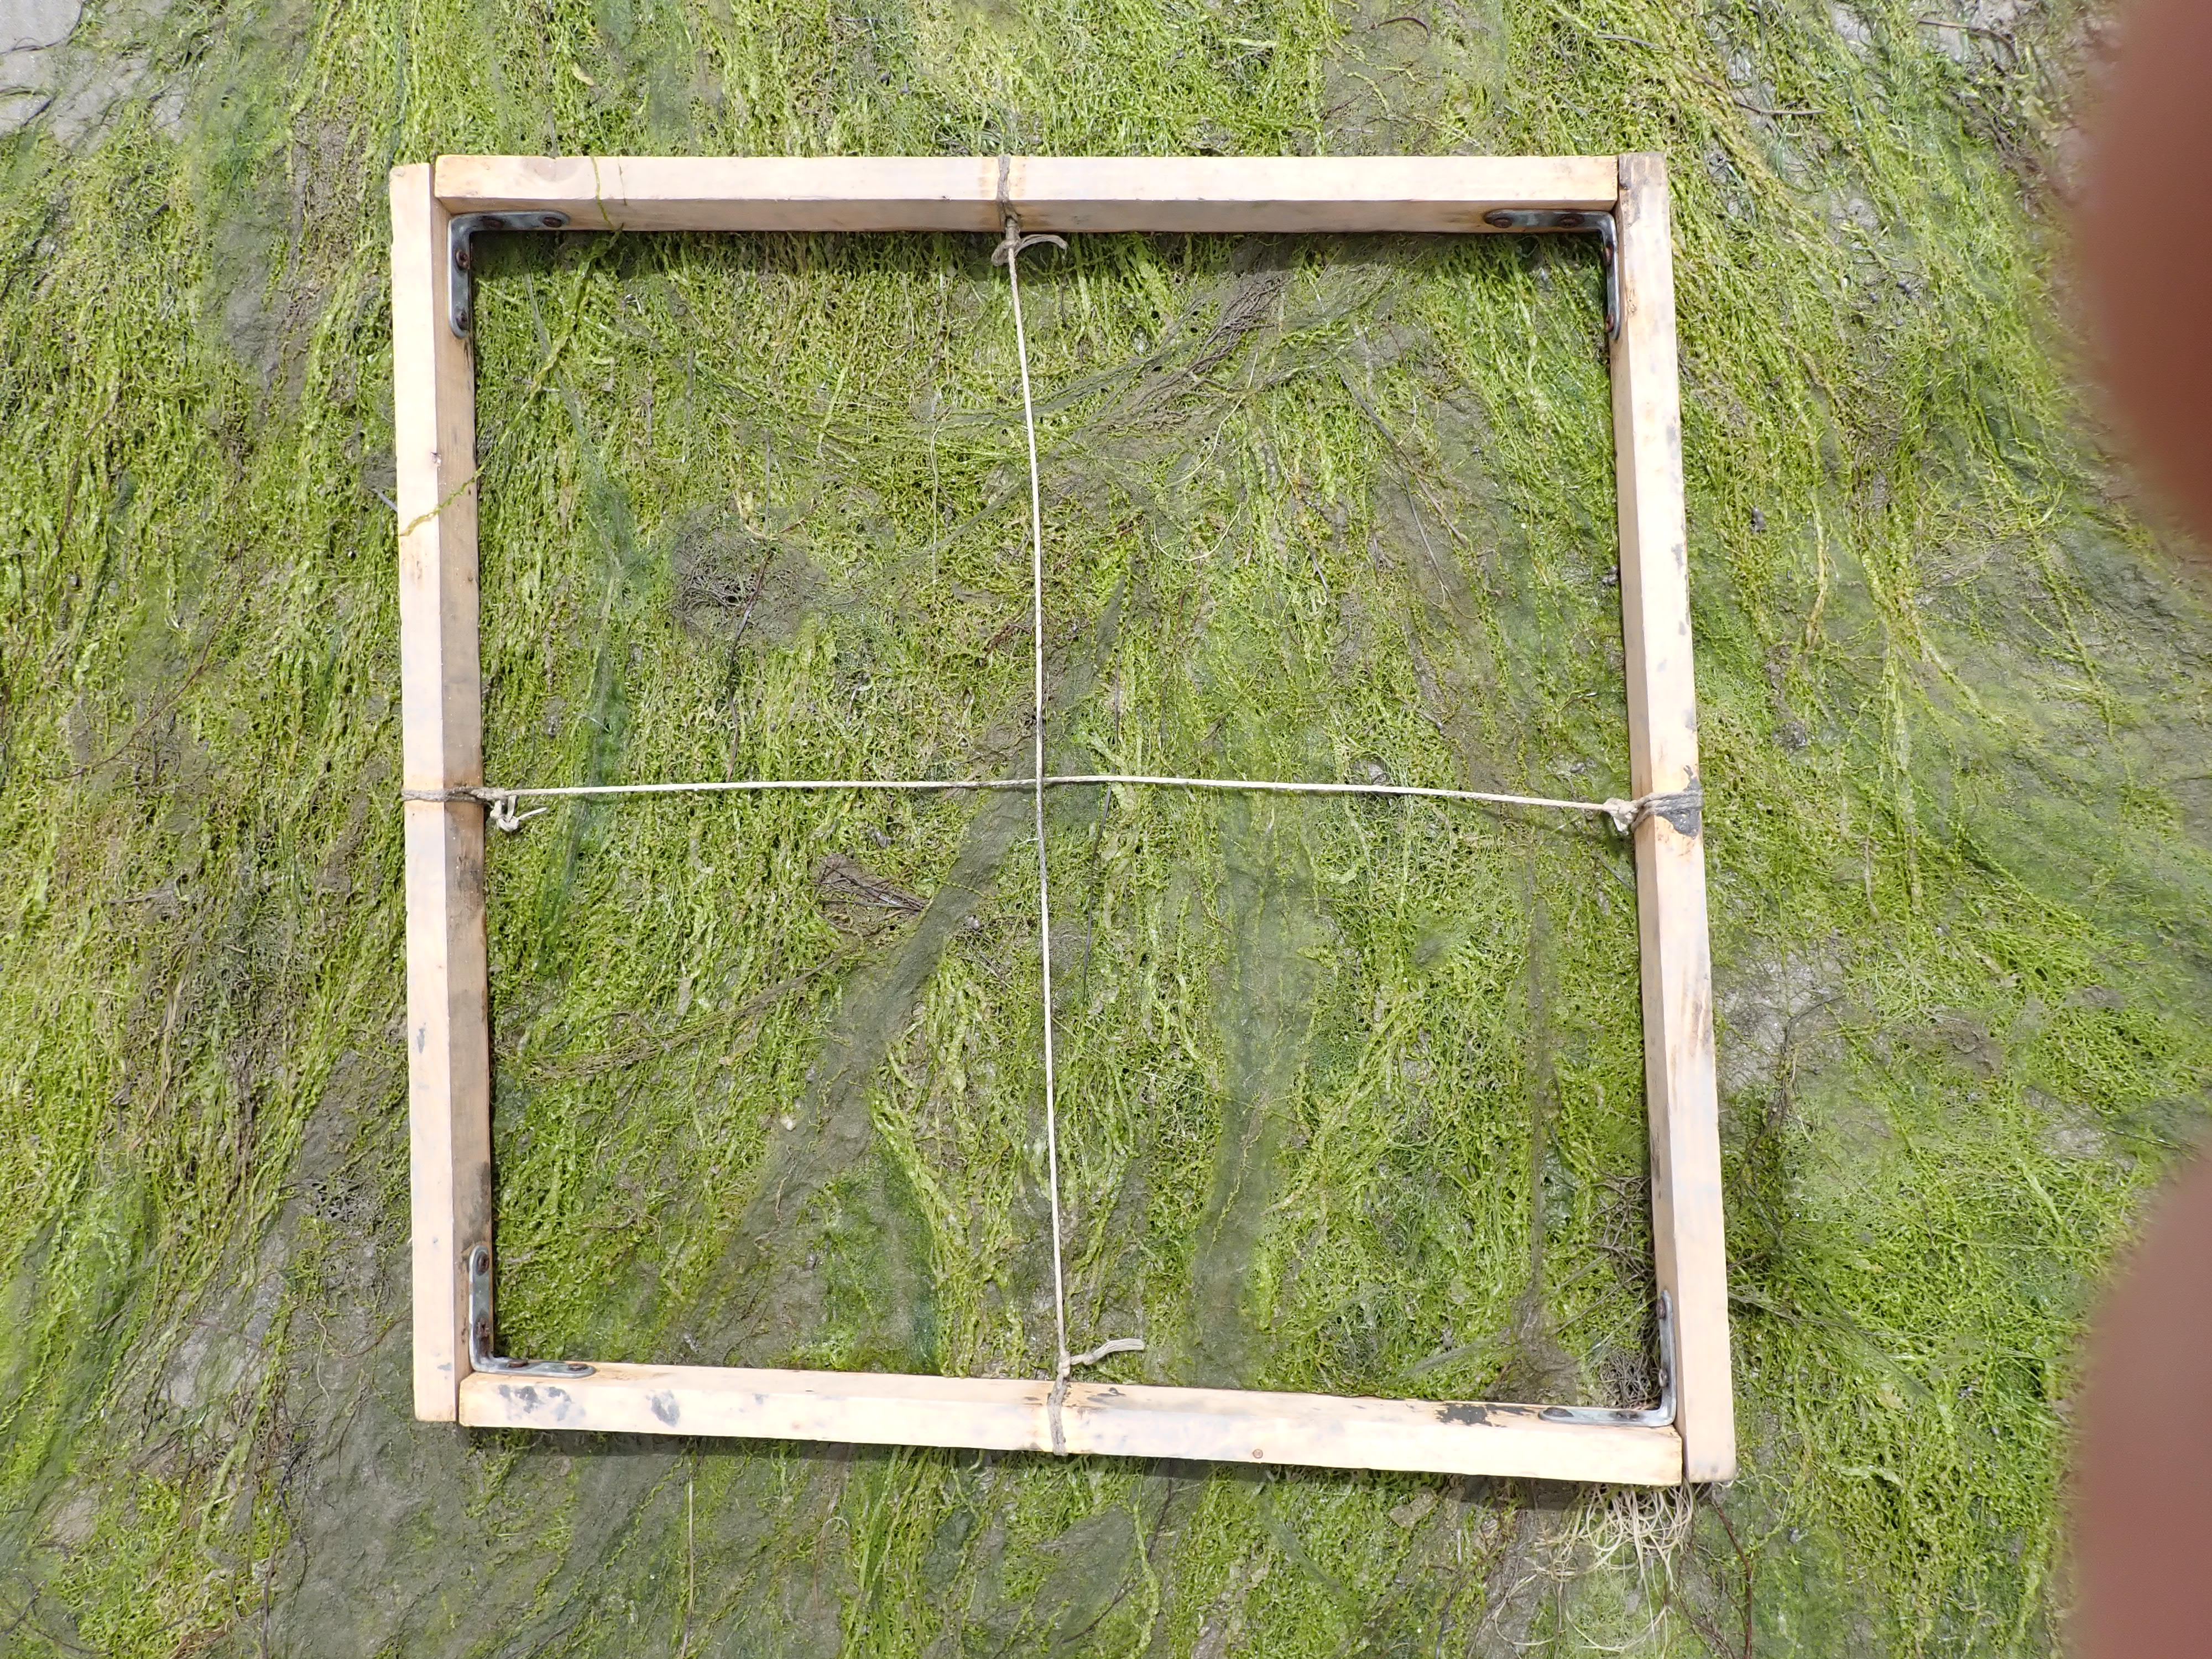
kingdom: Plantae
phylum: Rhodophyta
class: Florideophyceae
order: Gracilariales
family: Gracilariaceae
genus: Gracilaria
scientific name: Gracilaria vermiculophylla
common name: Algae
